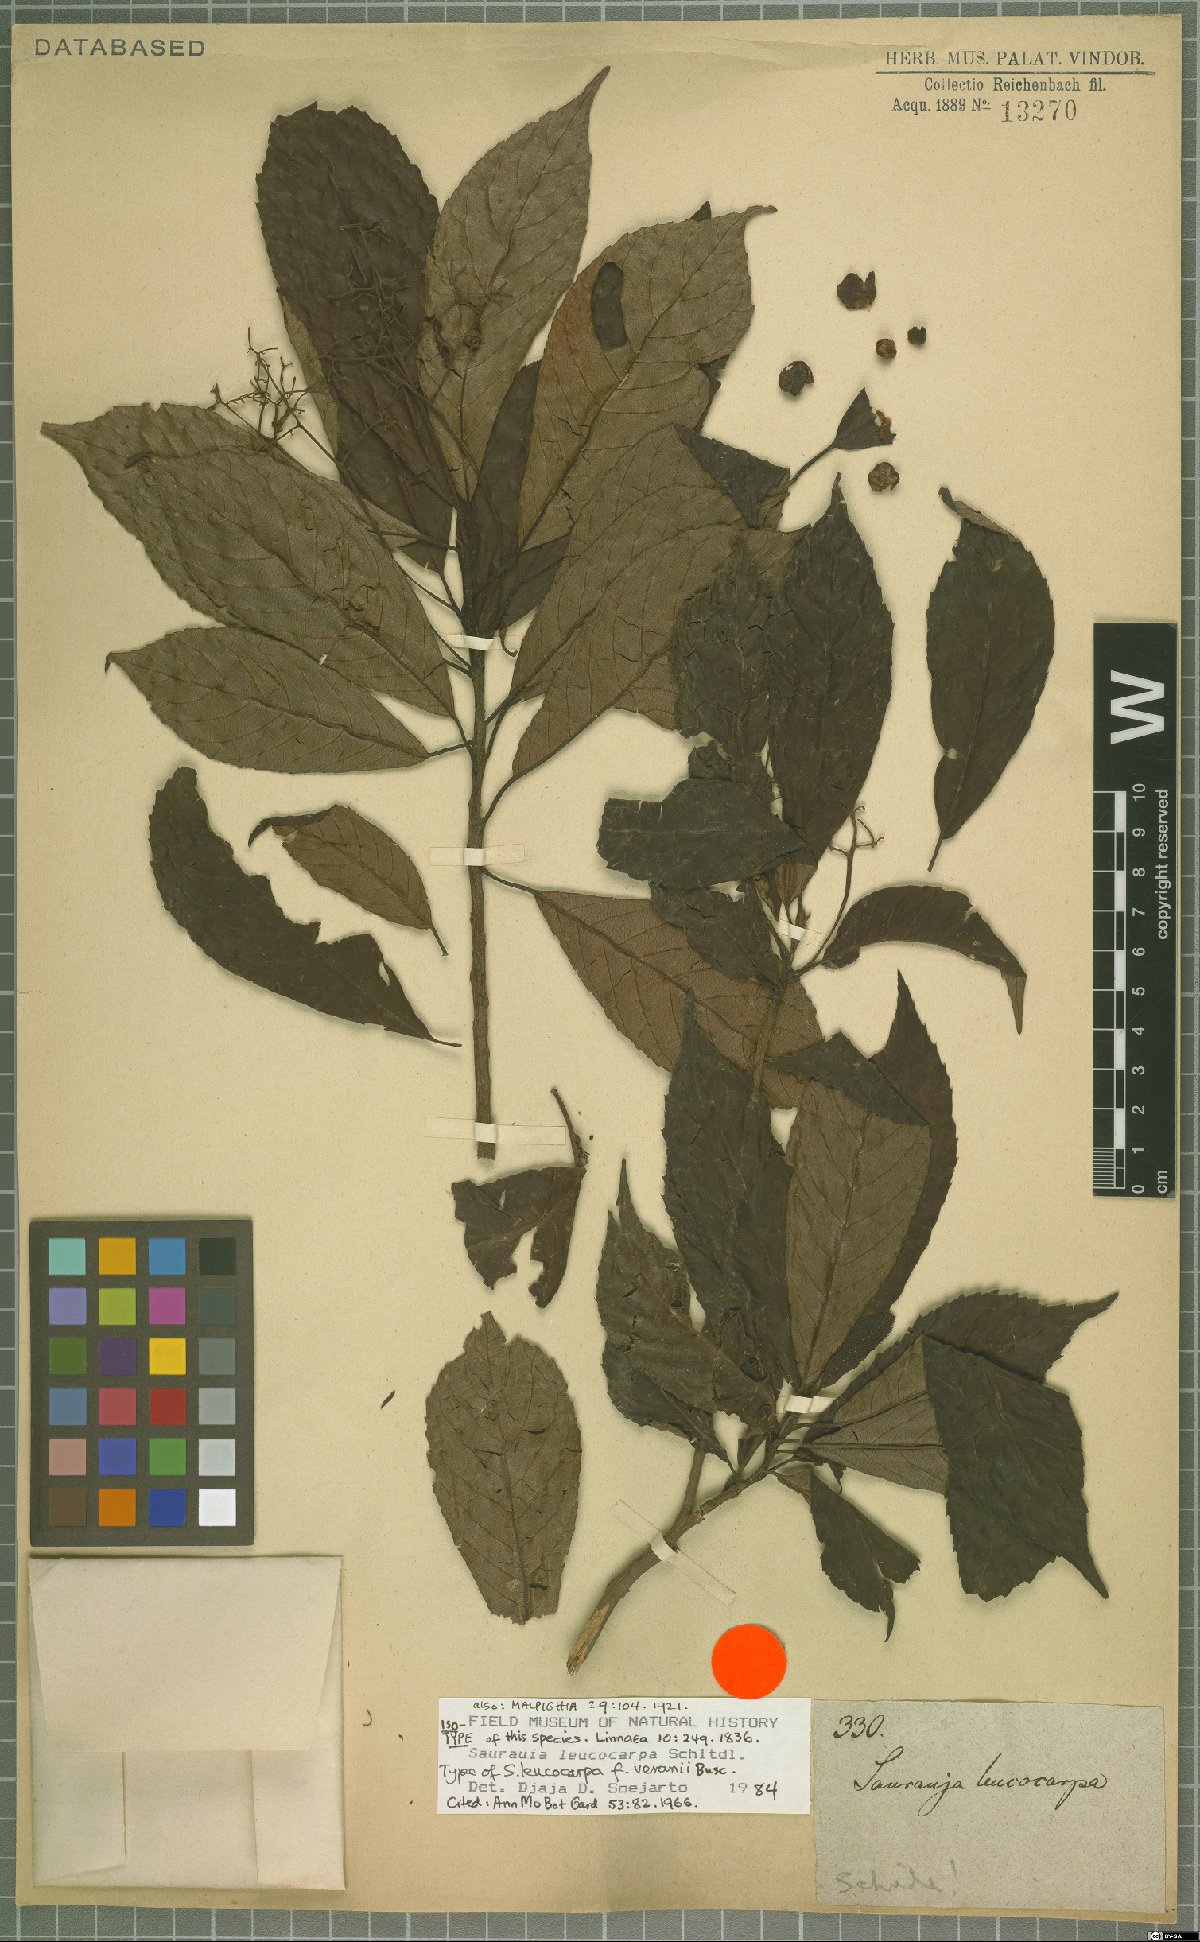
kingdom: Plantae
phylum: Tracheophyta
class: Magnoliopsida
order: Ericales
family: Actinidiaceae
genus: Saurauia
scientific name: Saurauia leucocarpa
